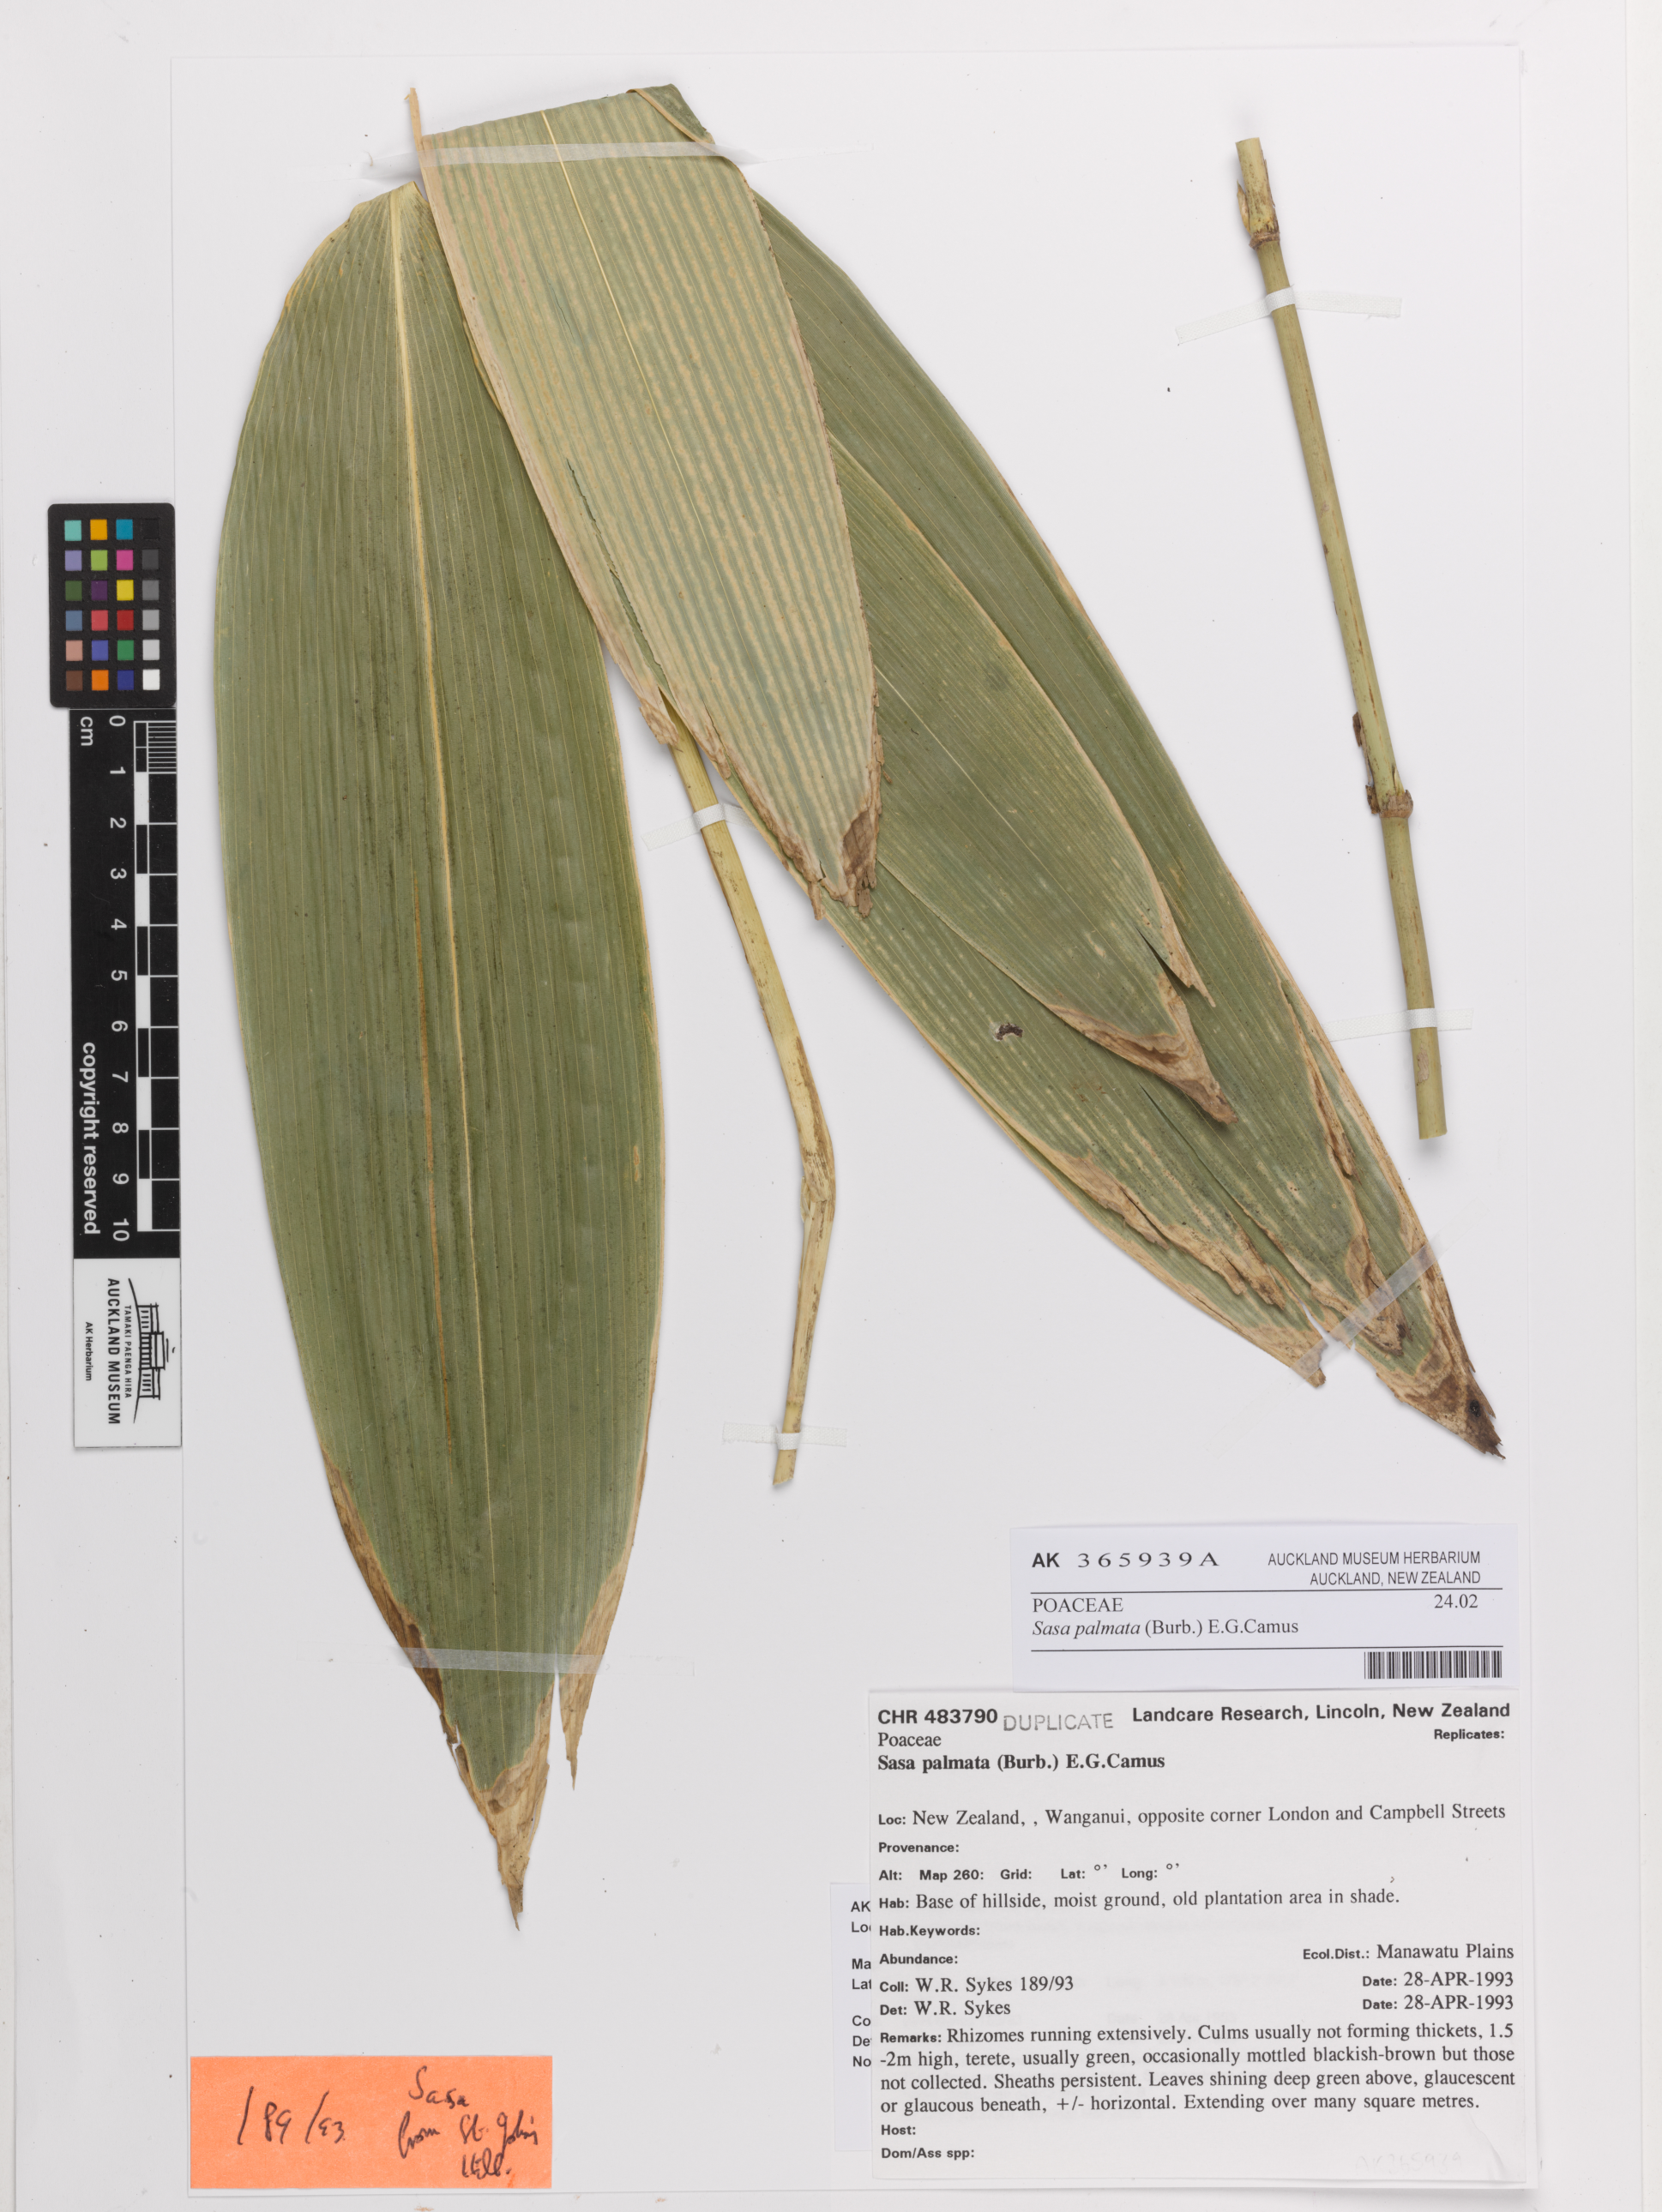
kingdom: Plantae
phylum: Tracheophyta
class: Liliopsida
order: Poales
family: Poaceae
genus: Sasa
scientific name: Sasa palmata
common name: Broad-leaved bamboo
